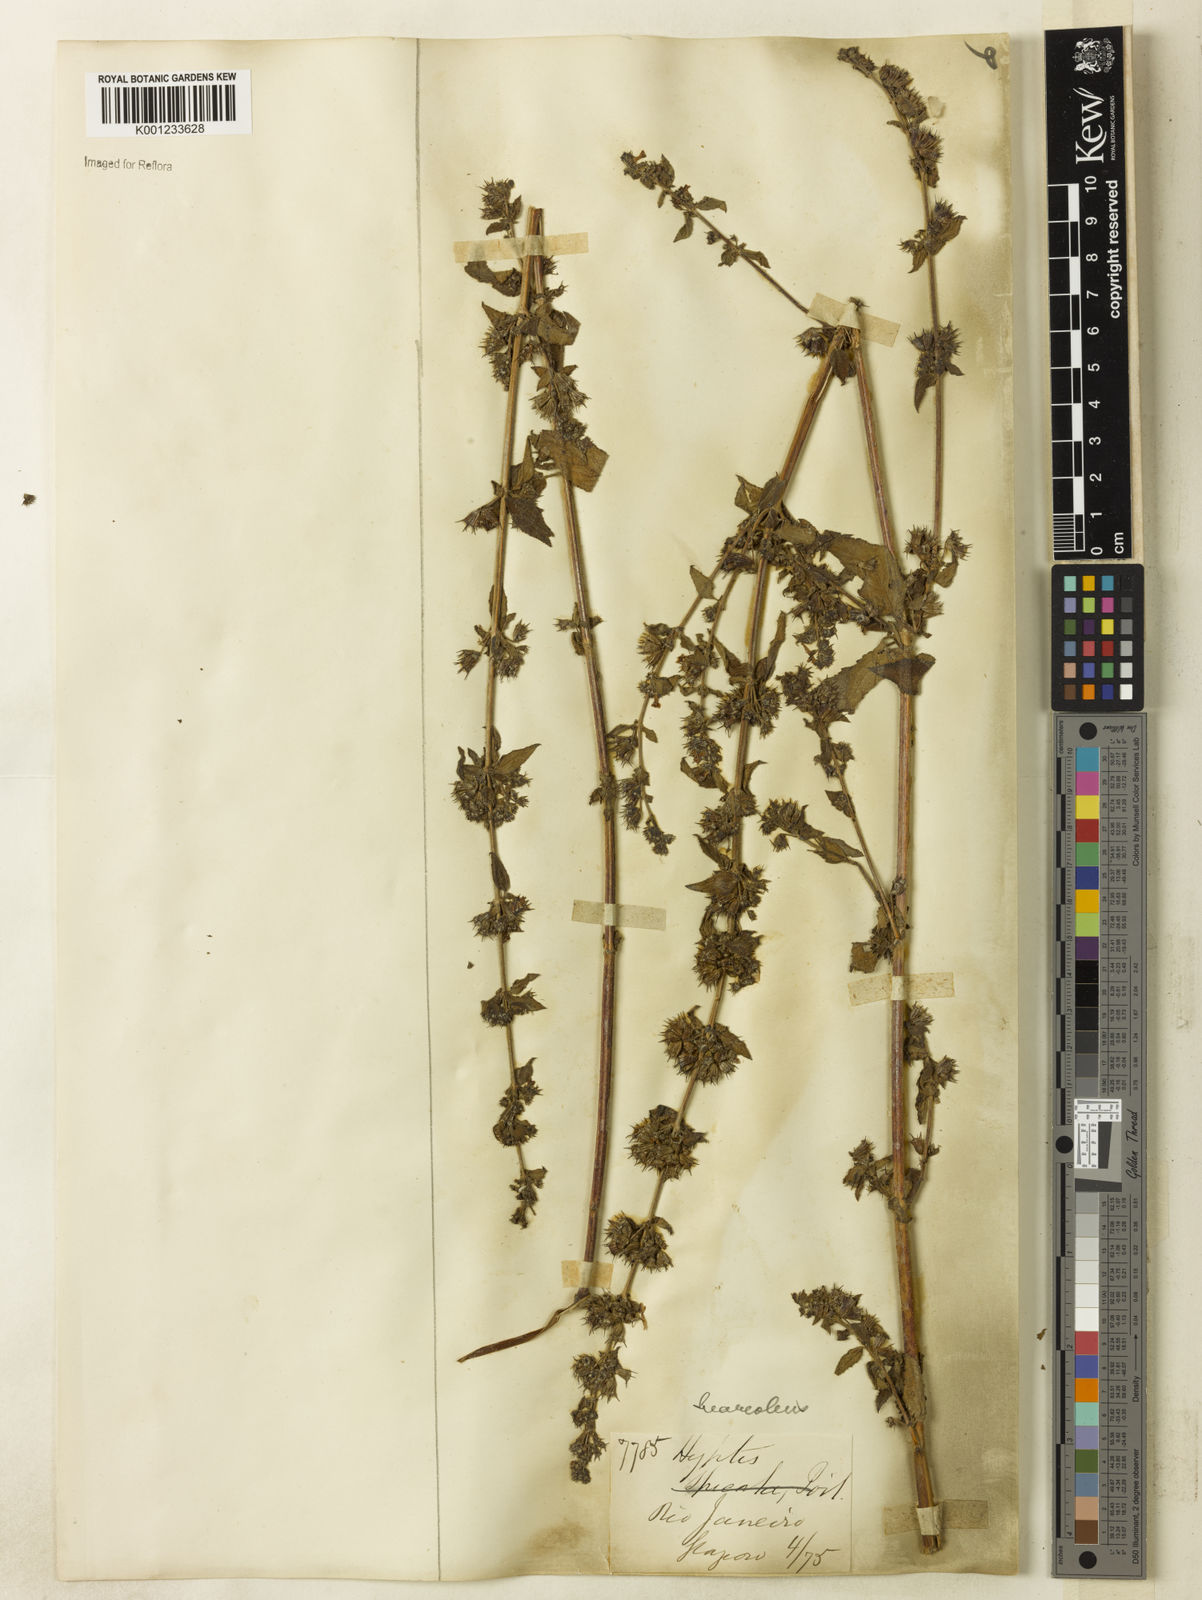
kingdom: Plantae
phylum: Tracheophyta
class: Magnoliopsida
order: Lamiales
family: Lamiaceae
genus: Mesosphaerum
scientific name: Mesosphaerum suaveolens
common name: Pignut
